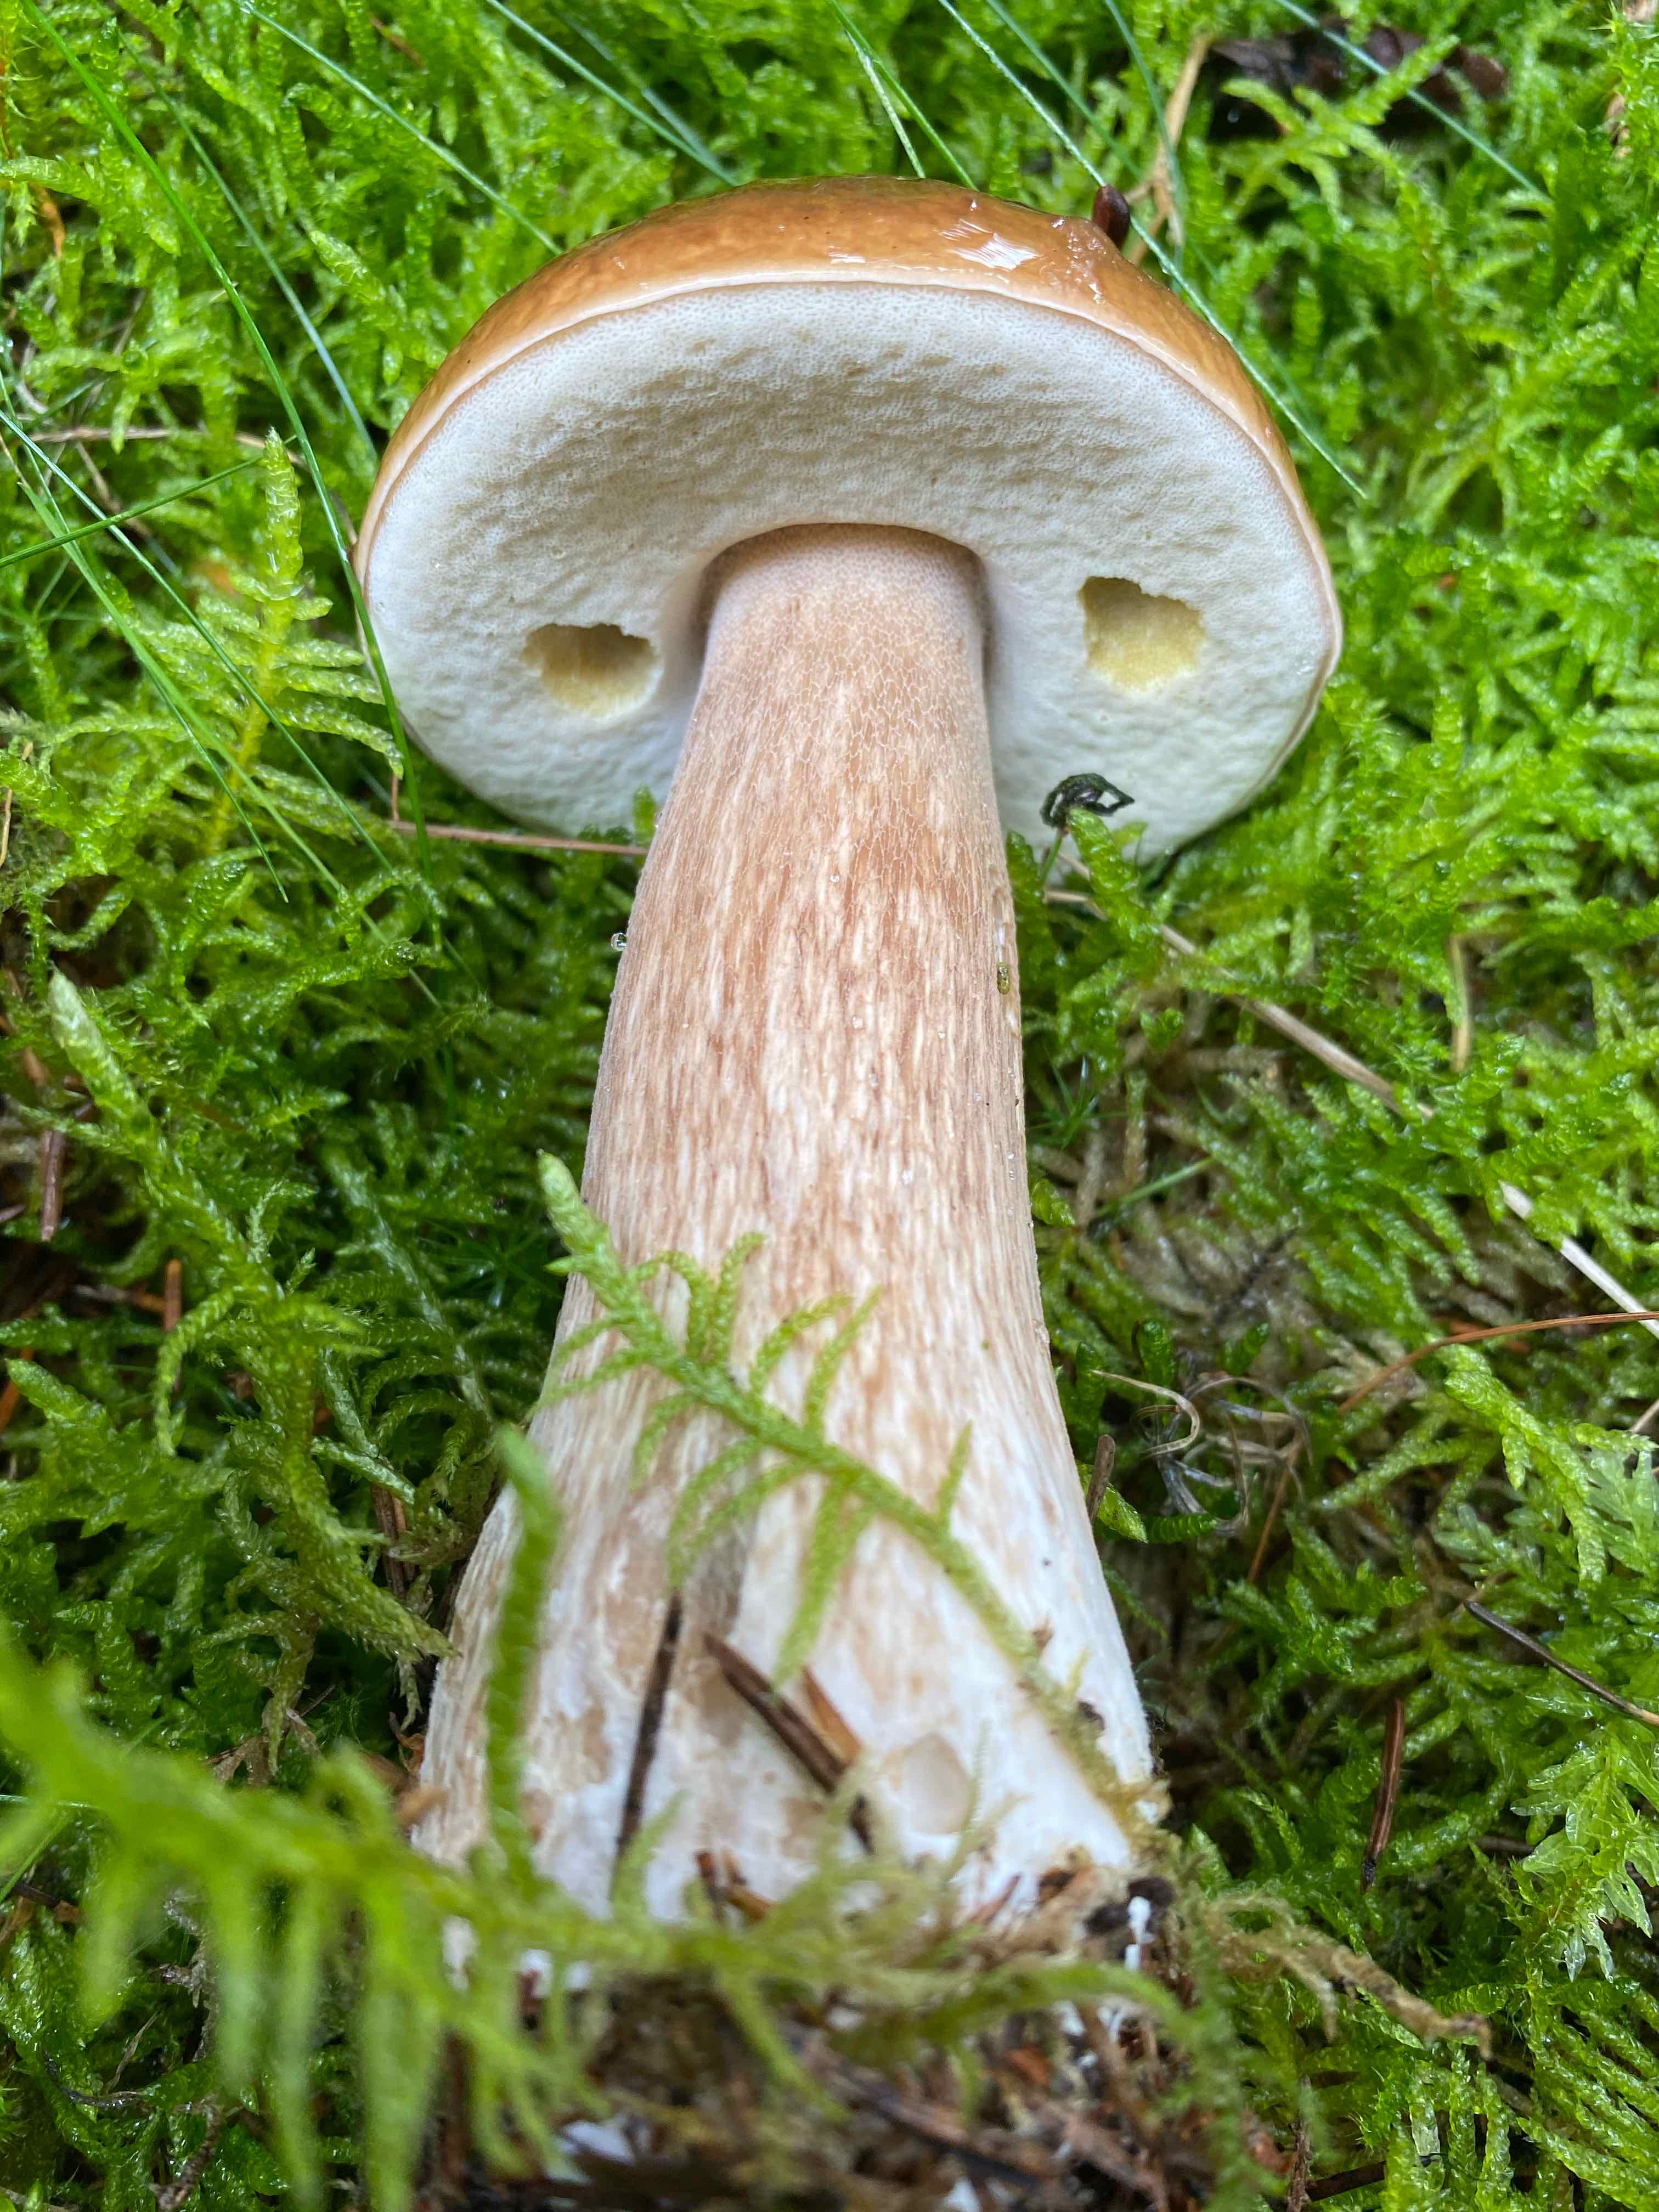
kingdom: Fungi
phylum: Basidiomycota
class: Agaricomycetes
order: Boletales
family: Boletaceae
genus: Boletus
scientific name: Boletus edulis
